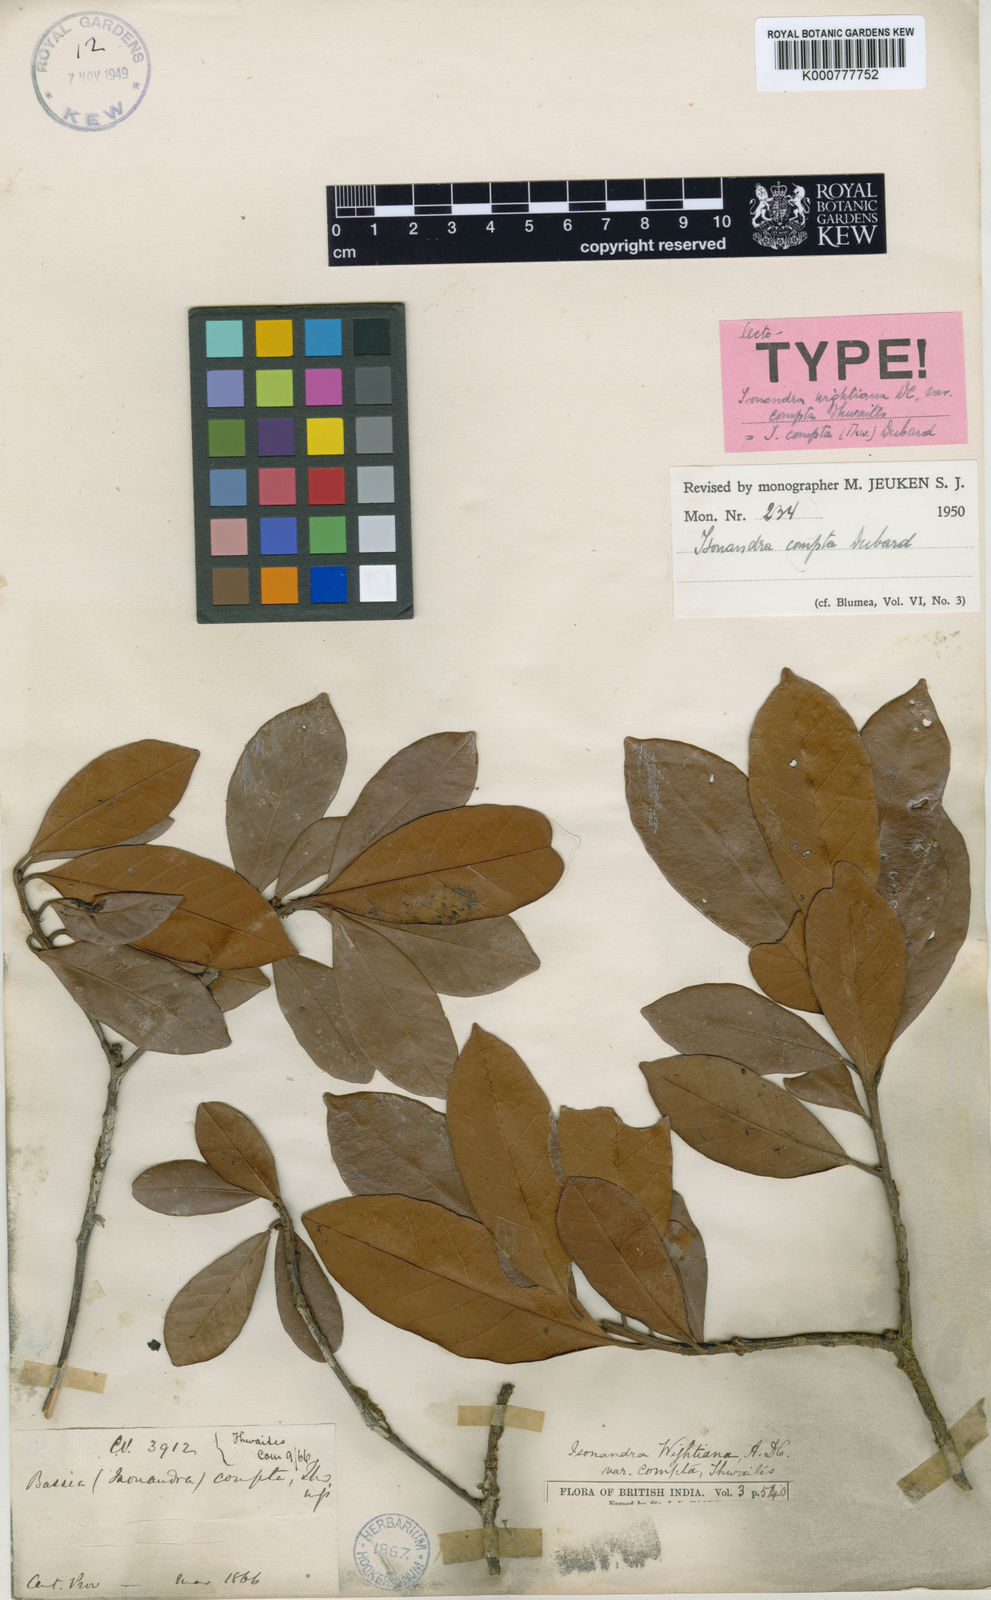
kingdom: Plantae
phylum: Tracheophyta
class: Magnoliopsida
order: Ericales
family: Sapotaceae
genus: Isonandra
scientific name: Isonandra compta
